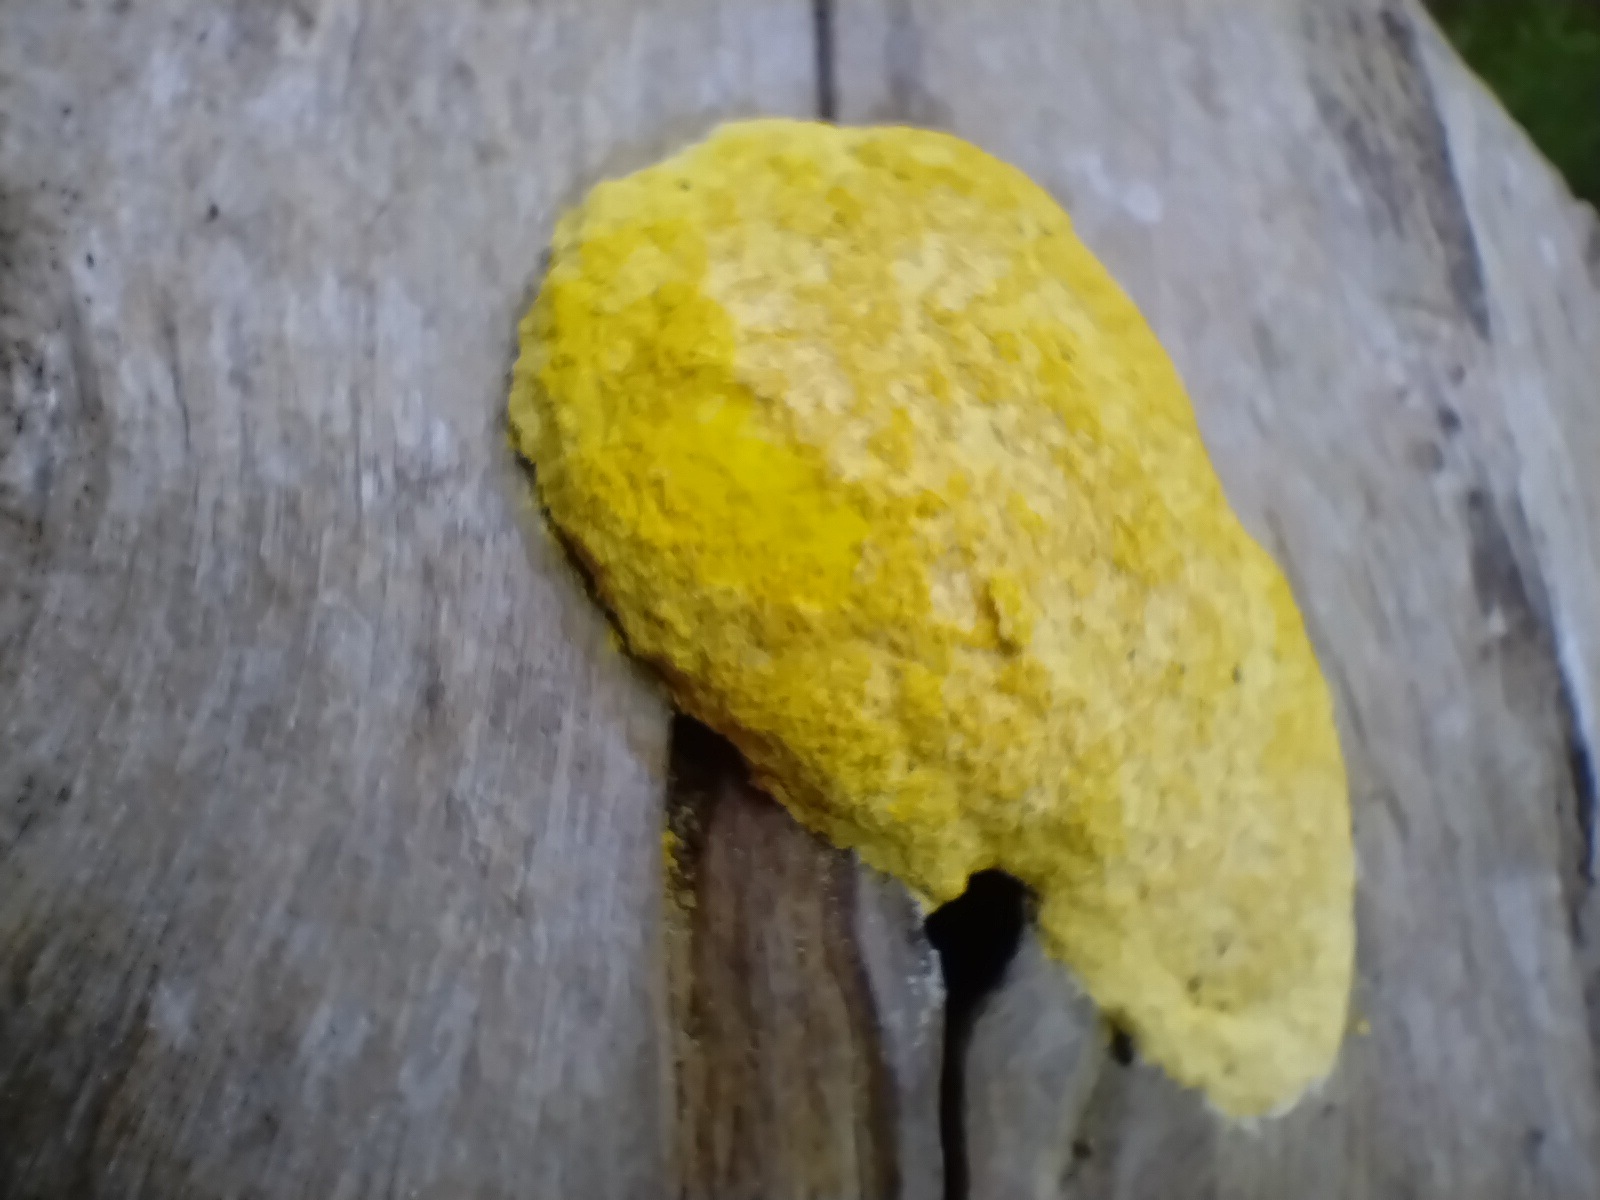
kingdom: Protozoa
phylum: Mycetozoa
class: Myxomycetes
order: Physarales
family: Physaraceae
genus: Fuligo
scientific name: Fuligo septica
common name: gul troldsmør
